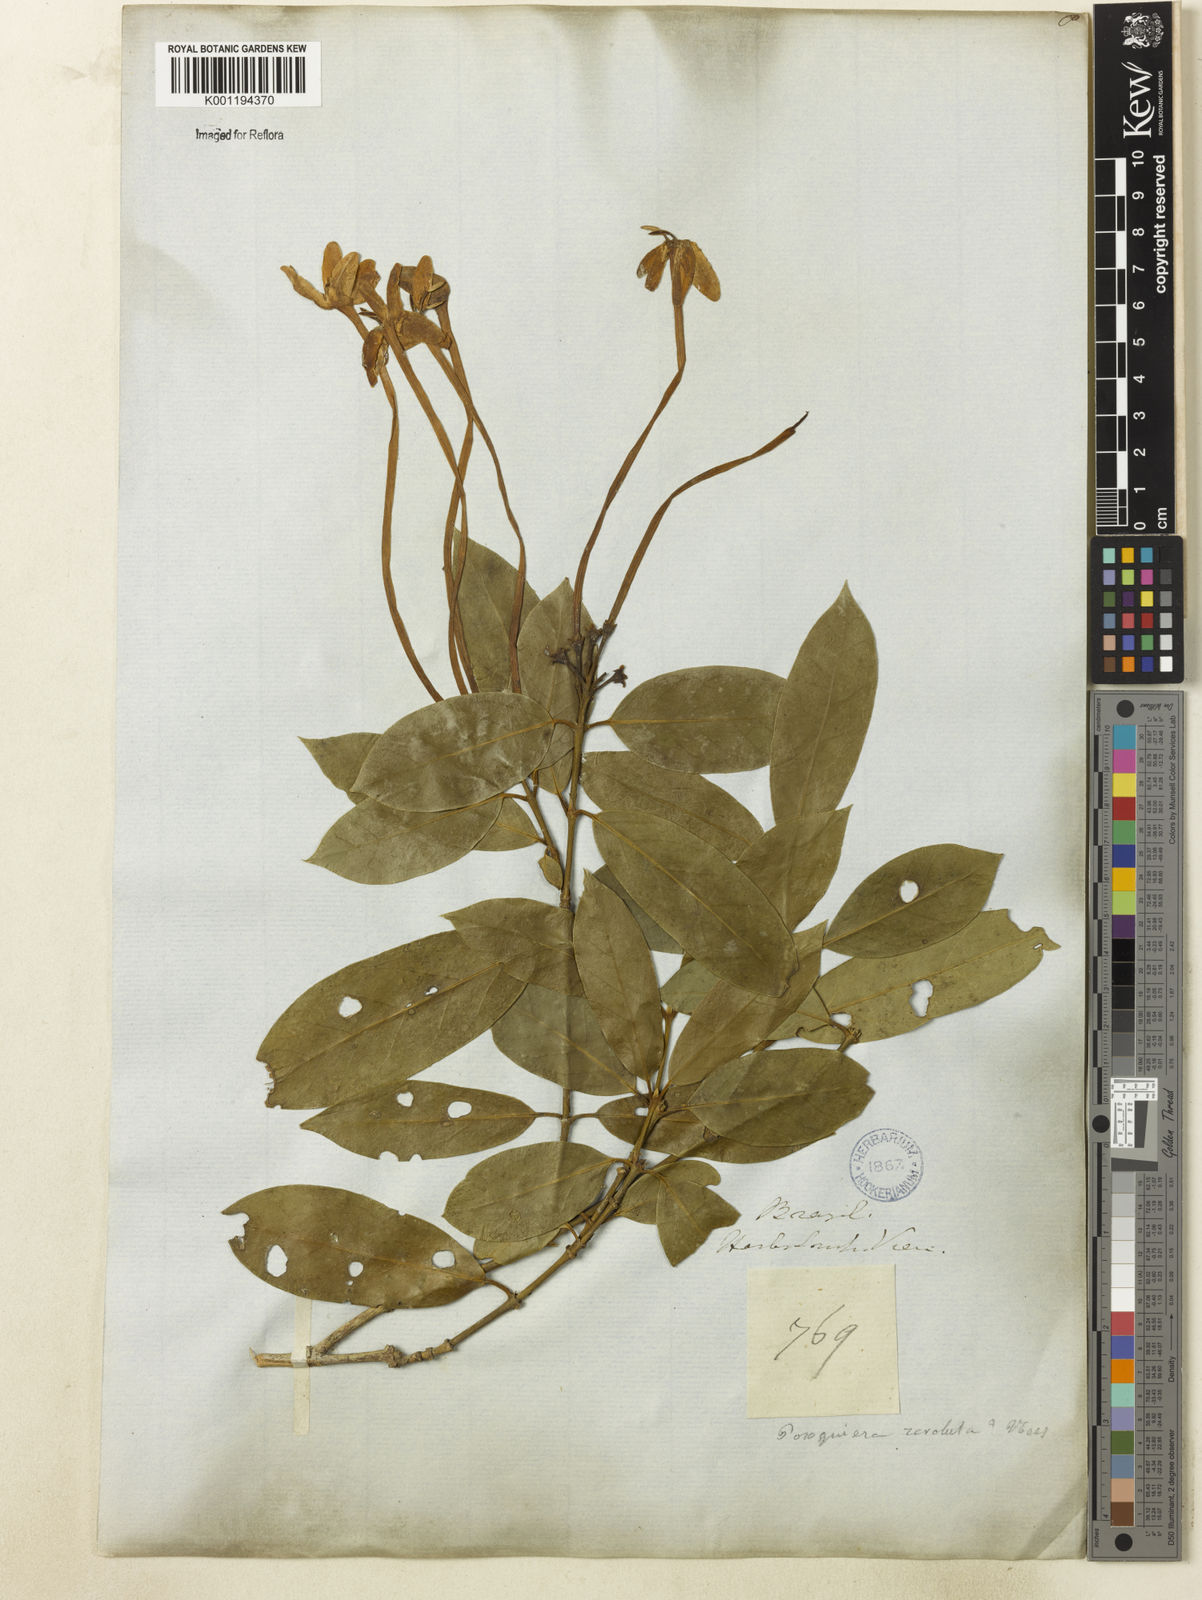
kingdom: Plantae
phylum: Tracheophyta
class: Magnoliopsida
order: Gentianales
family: Rubiaceae
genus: Posoqueria
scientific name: Posoqueria acutifolia
